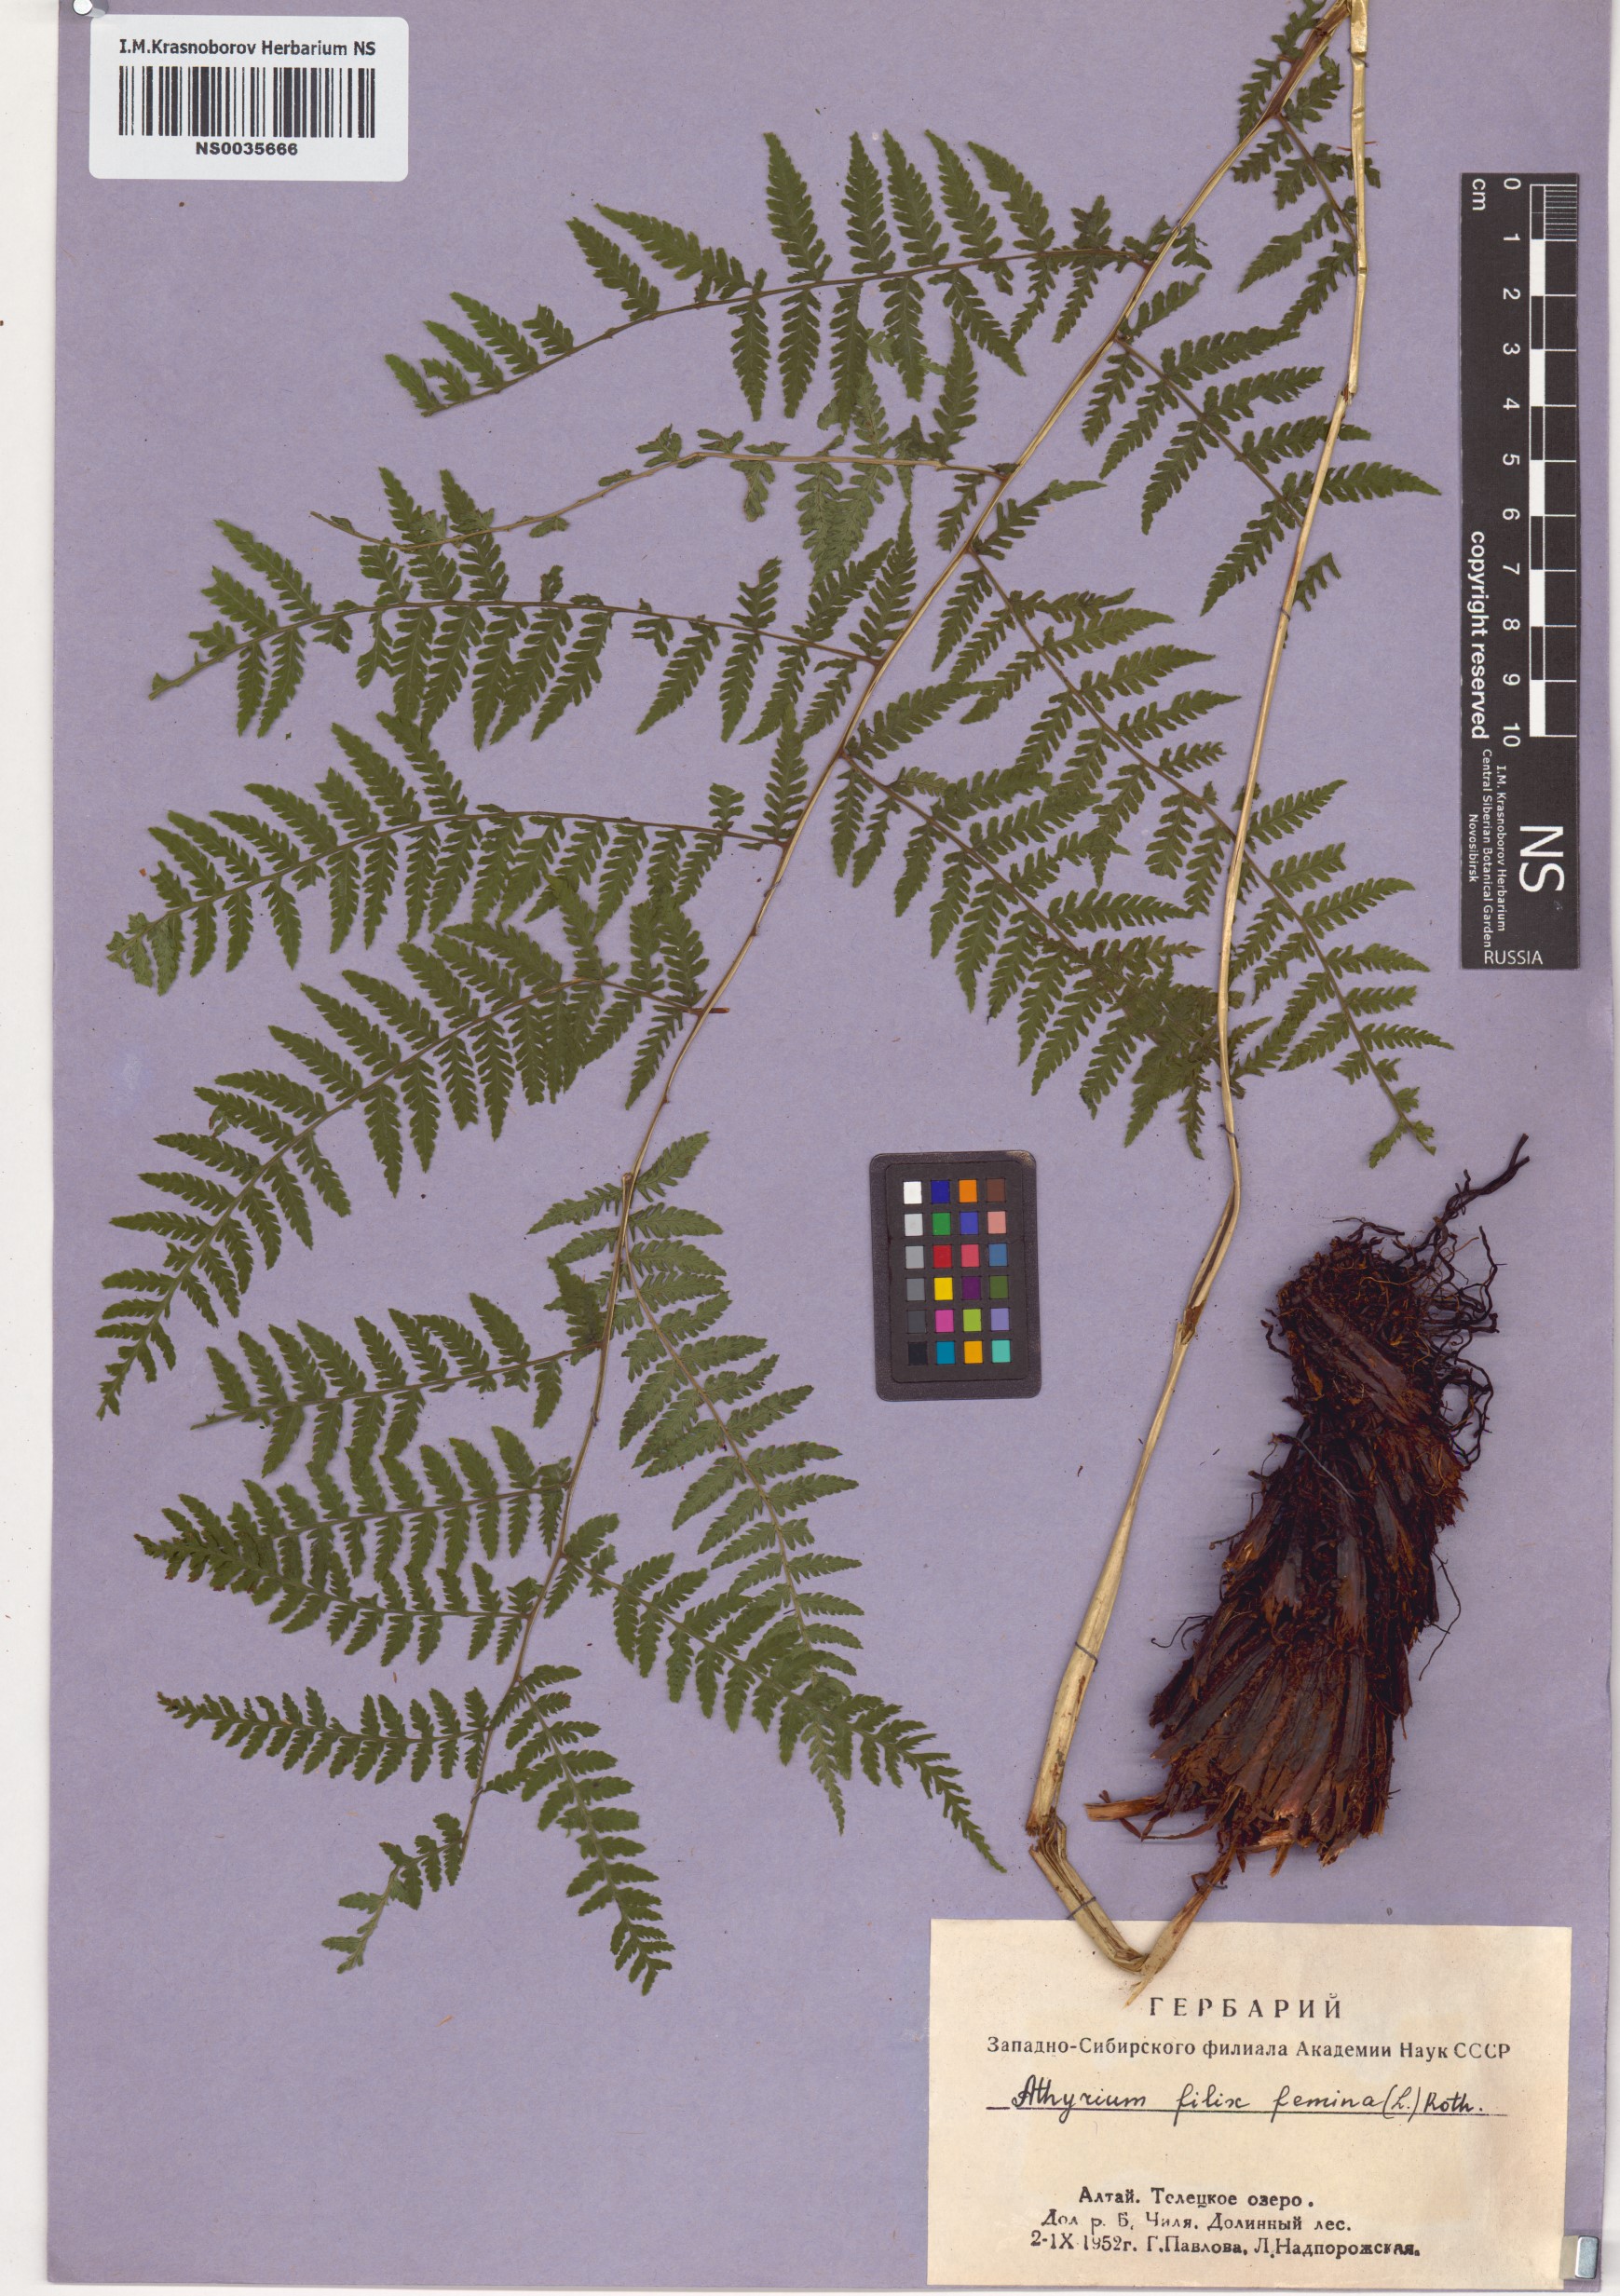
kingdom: Plantae
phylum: Tracheophyta
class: Polypodiopsida
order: Polypodiales
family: Athyriaceae
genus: Athyrium
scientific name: Athyrium filix-femina
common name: Lady fern
